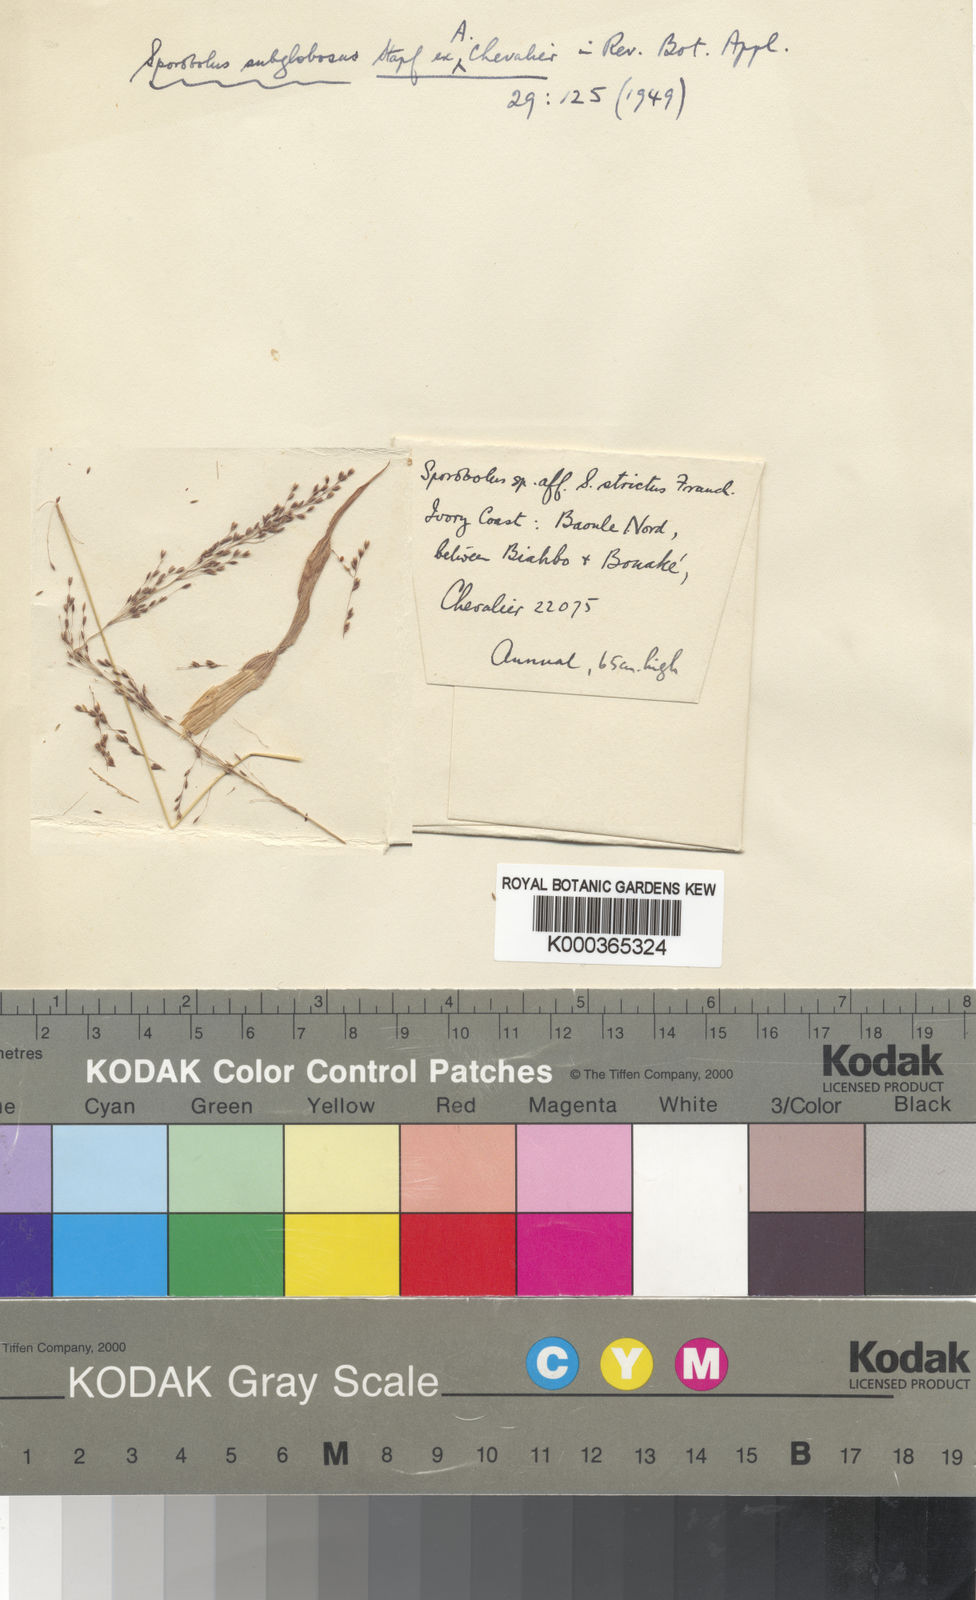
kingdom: Plantae
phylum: Tracheophyta
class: Liliopsida
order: Poales
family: Poaceae
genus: Sporobolus
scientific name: Sporobolus
